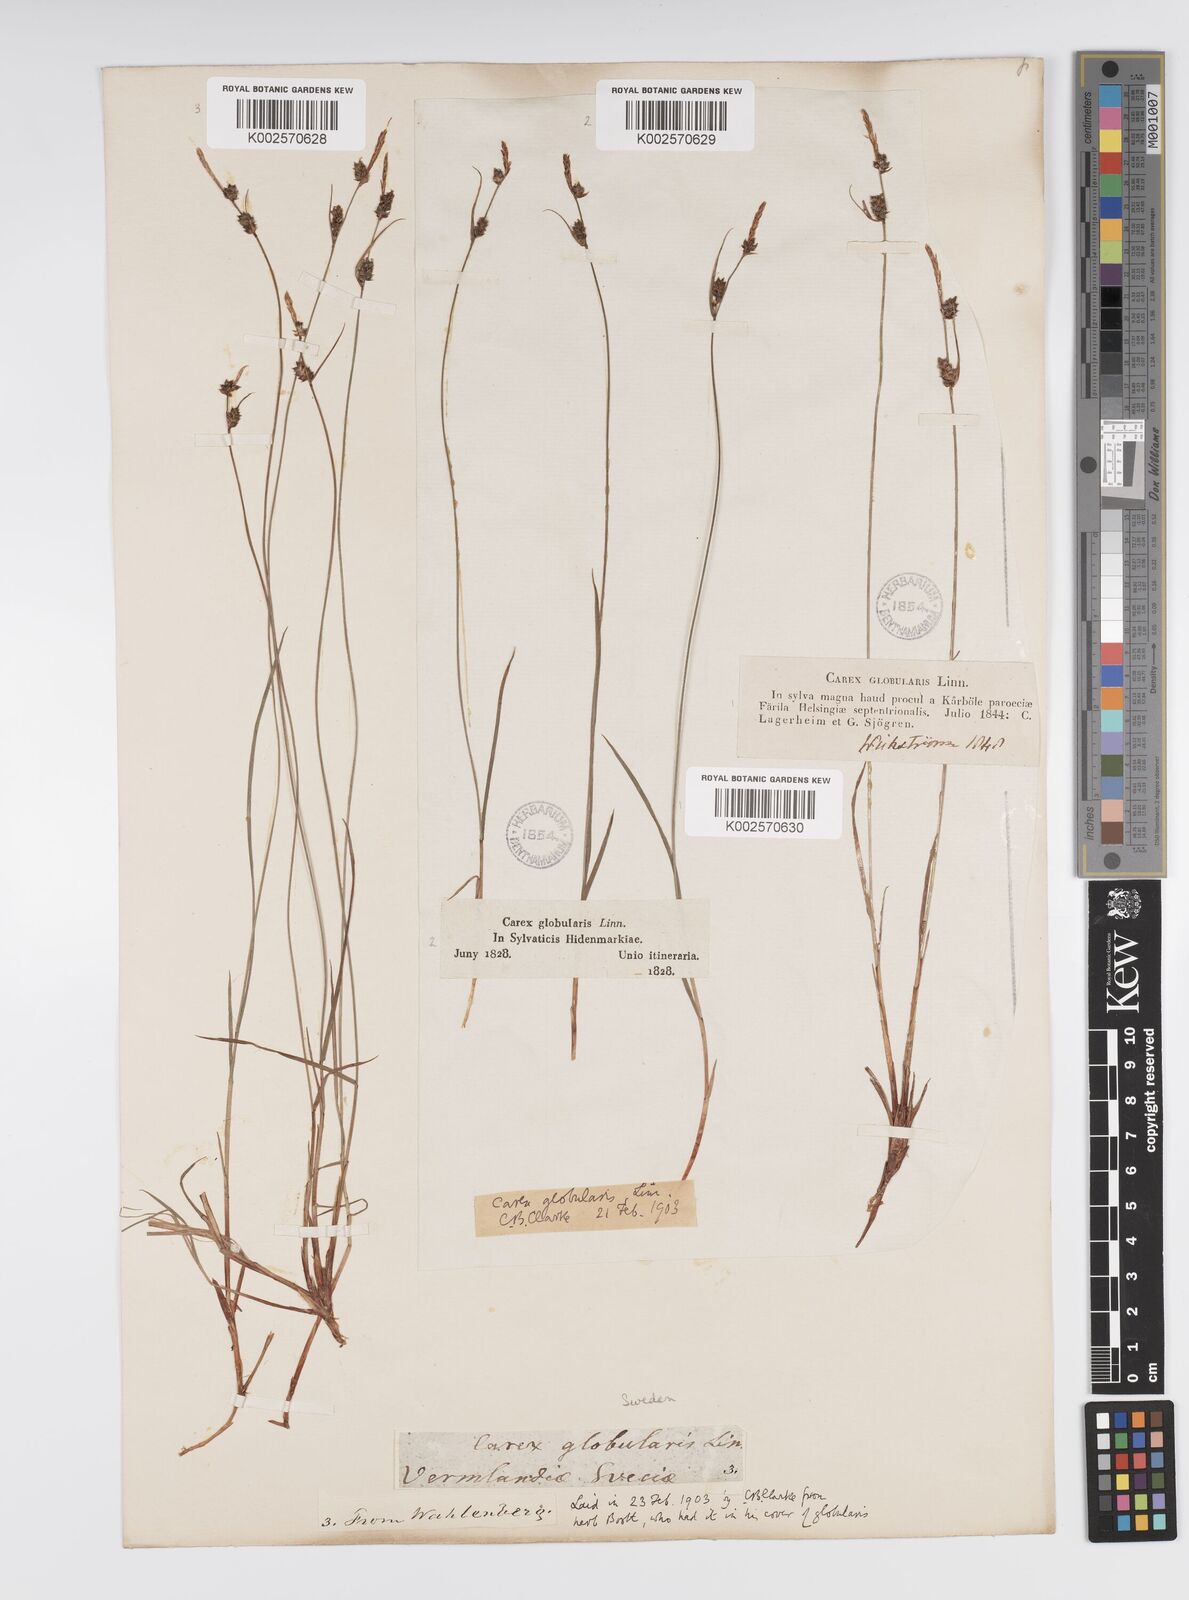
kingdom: Plantae
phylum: Tracheophyta
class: Liliopsida
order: Poales
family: Cyperaceae
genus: Carex
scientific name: Carex globularis
